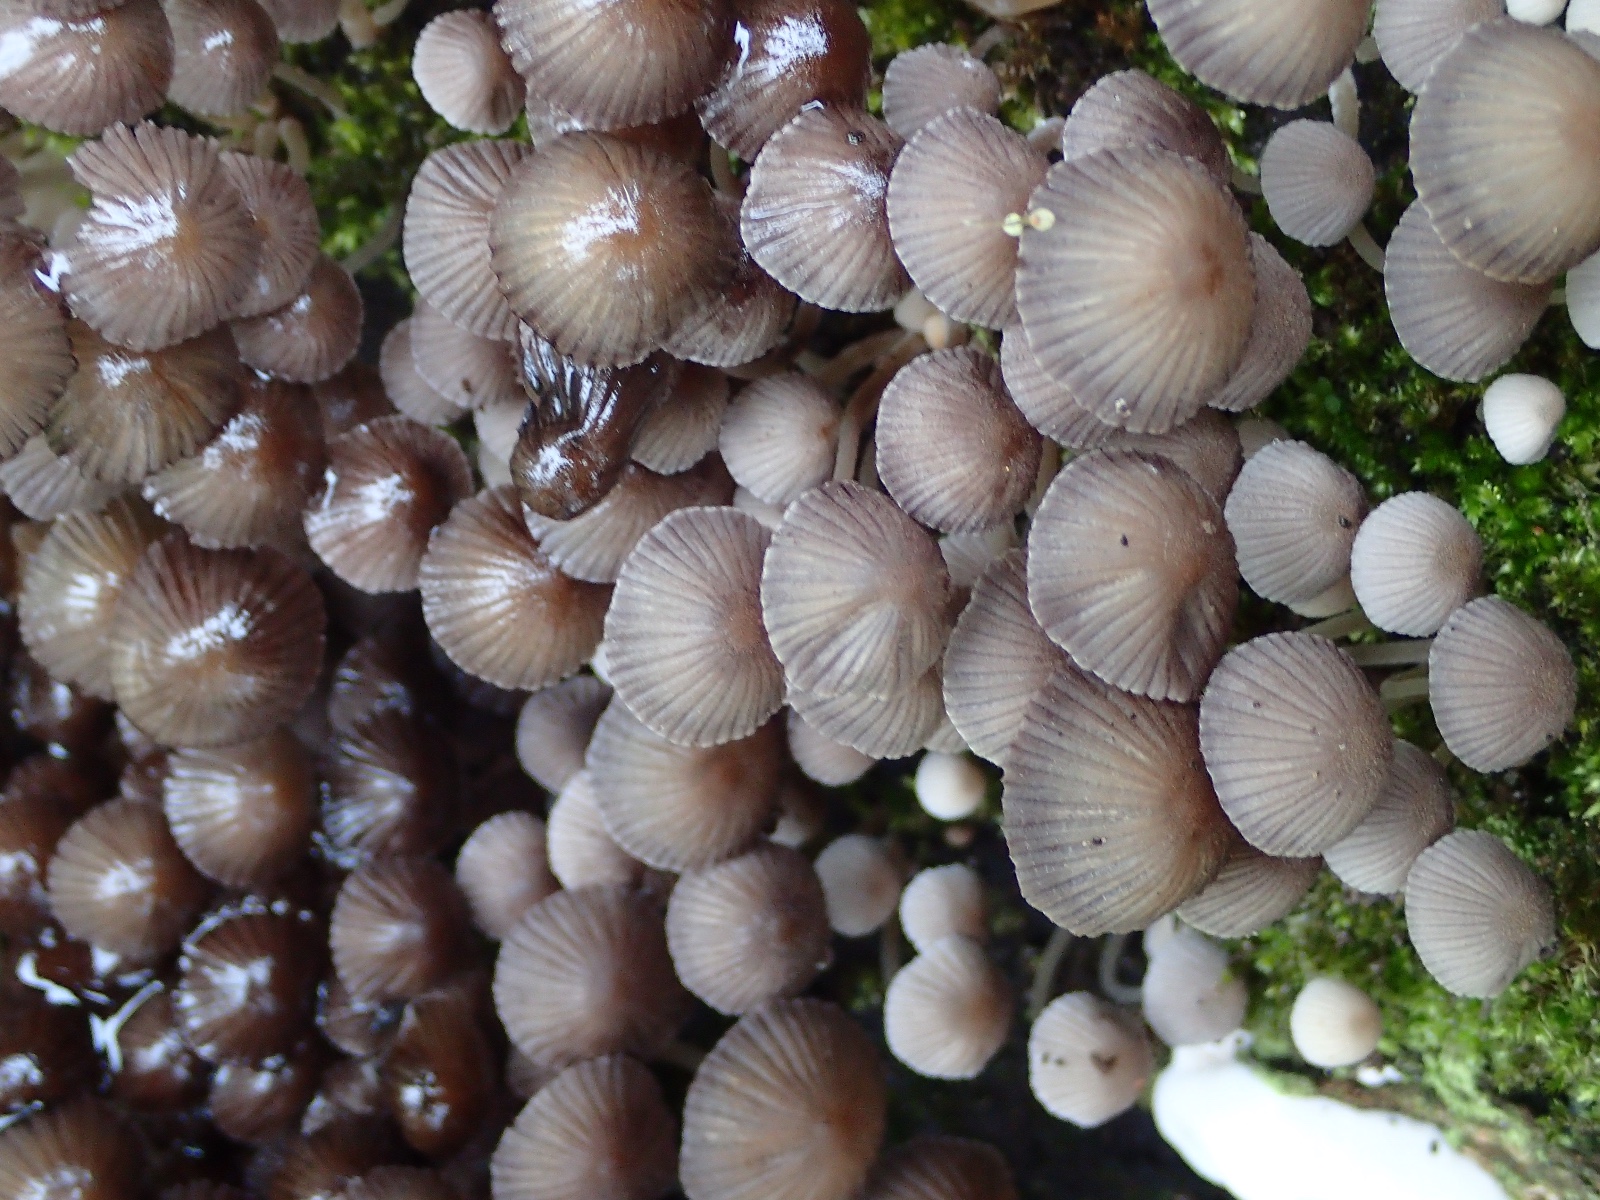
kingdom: Fungi
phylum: Basidiomycota
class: Agaricomycetes
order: Agaricales
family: Psathyrellaceae
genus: Coprinellus
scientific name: Coprinellus disseminatus
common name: bredsået blækhat
